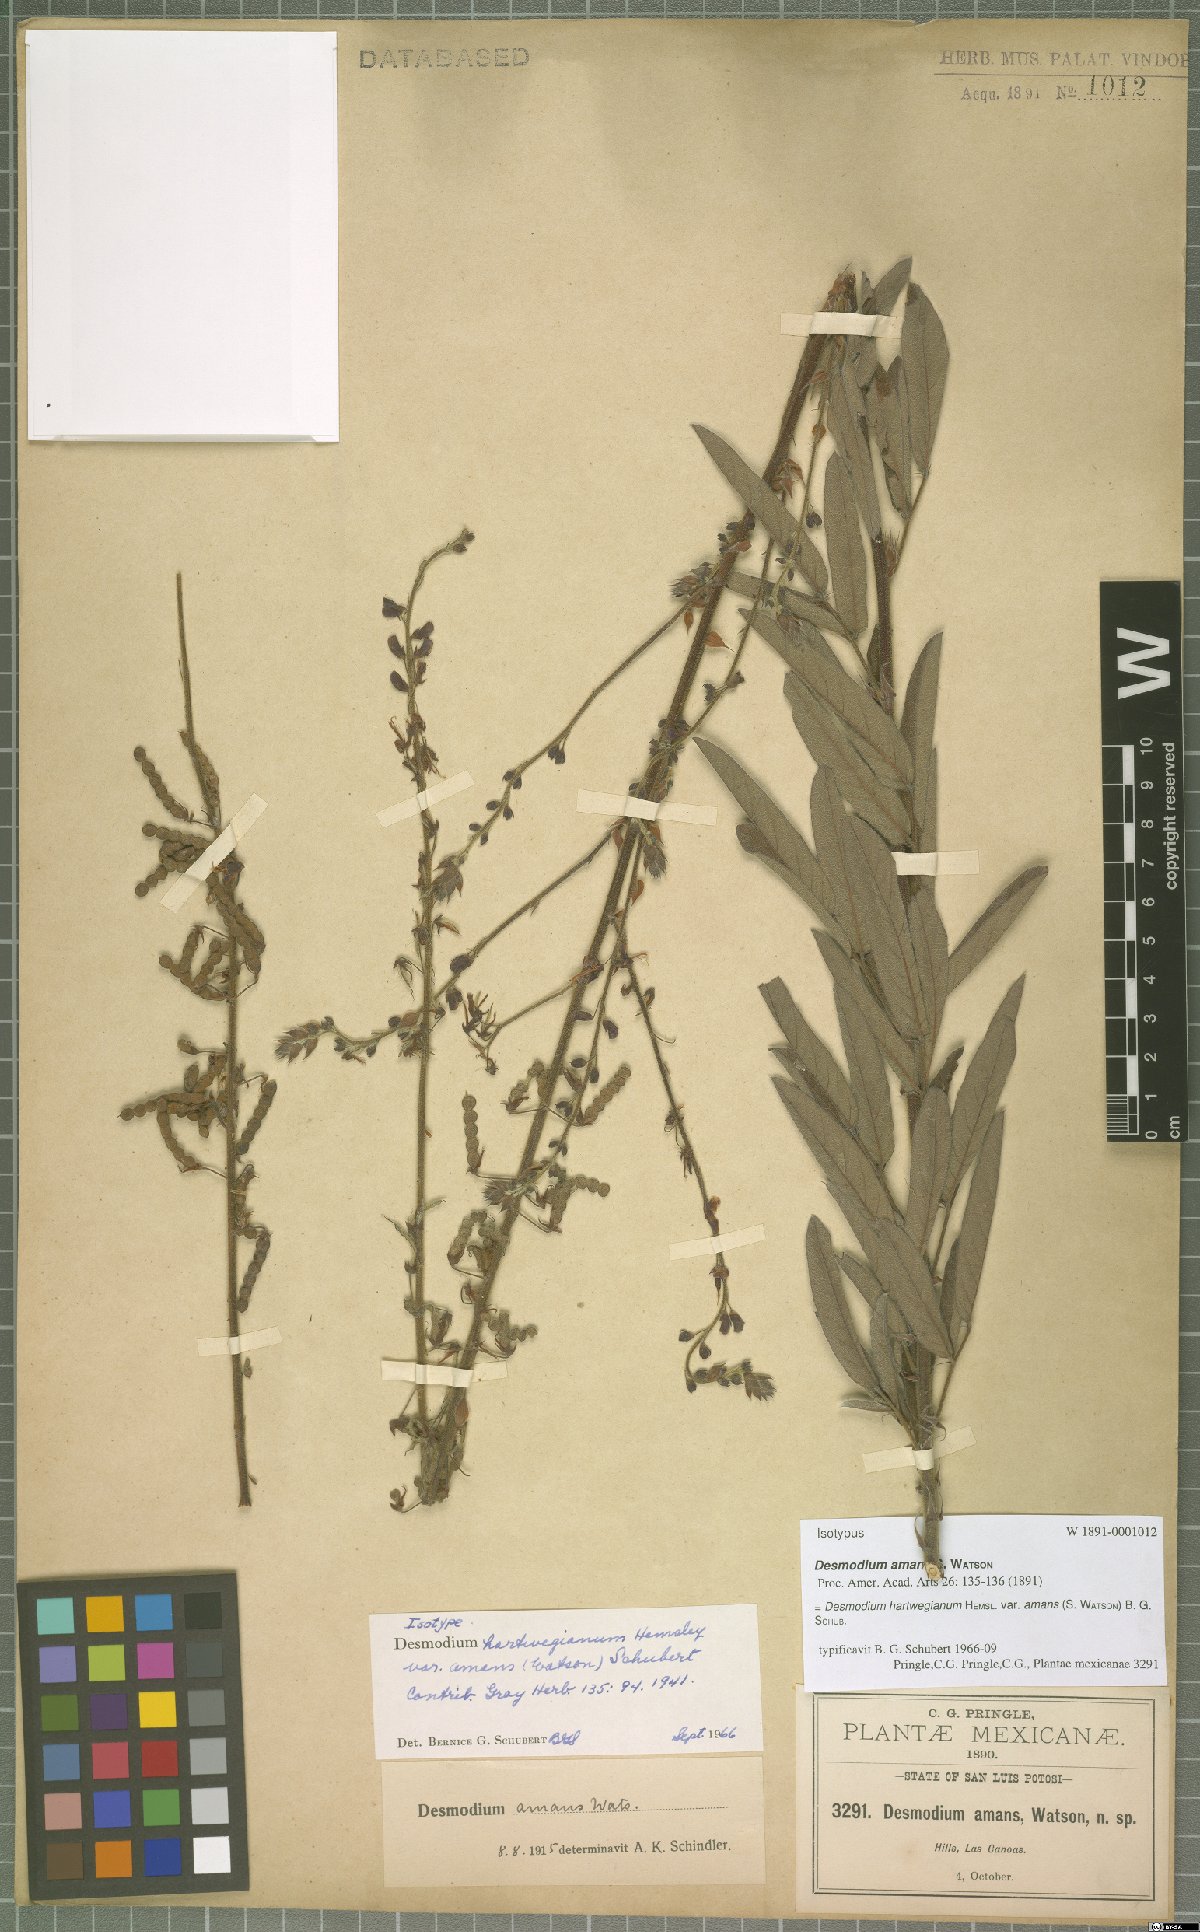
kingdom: Plantae
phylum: Tracheophyta
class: Magnoliopsida
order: Fabales
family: Fabaceae
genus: Desmodium
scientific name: Desmodium hartwegianum
